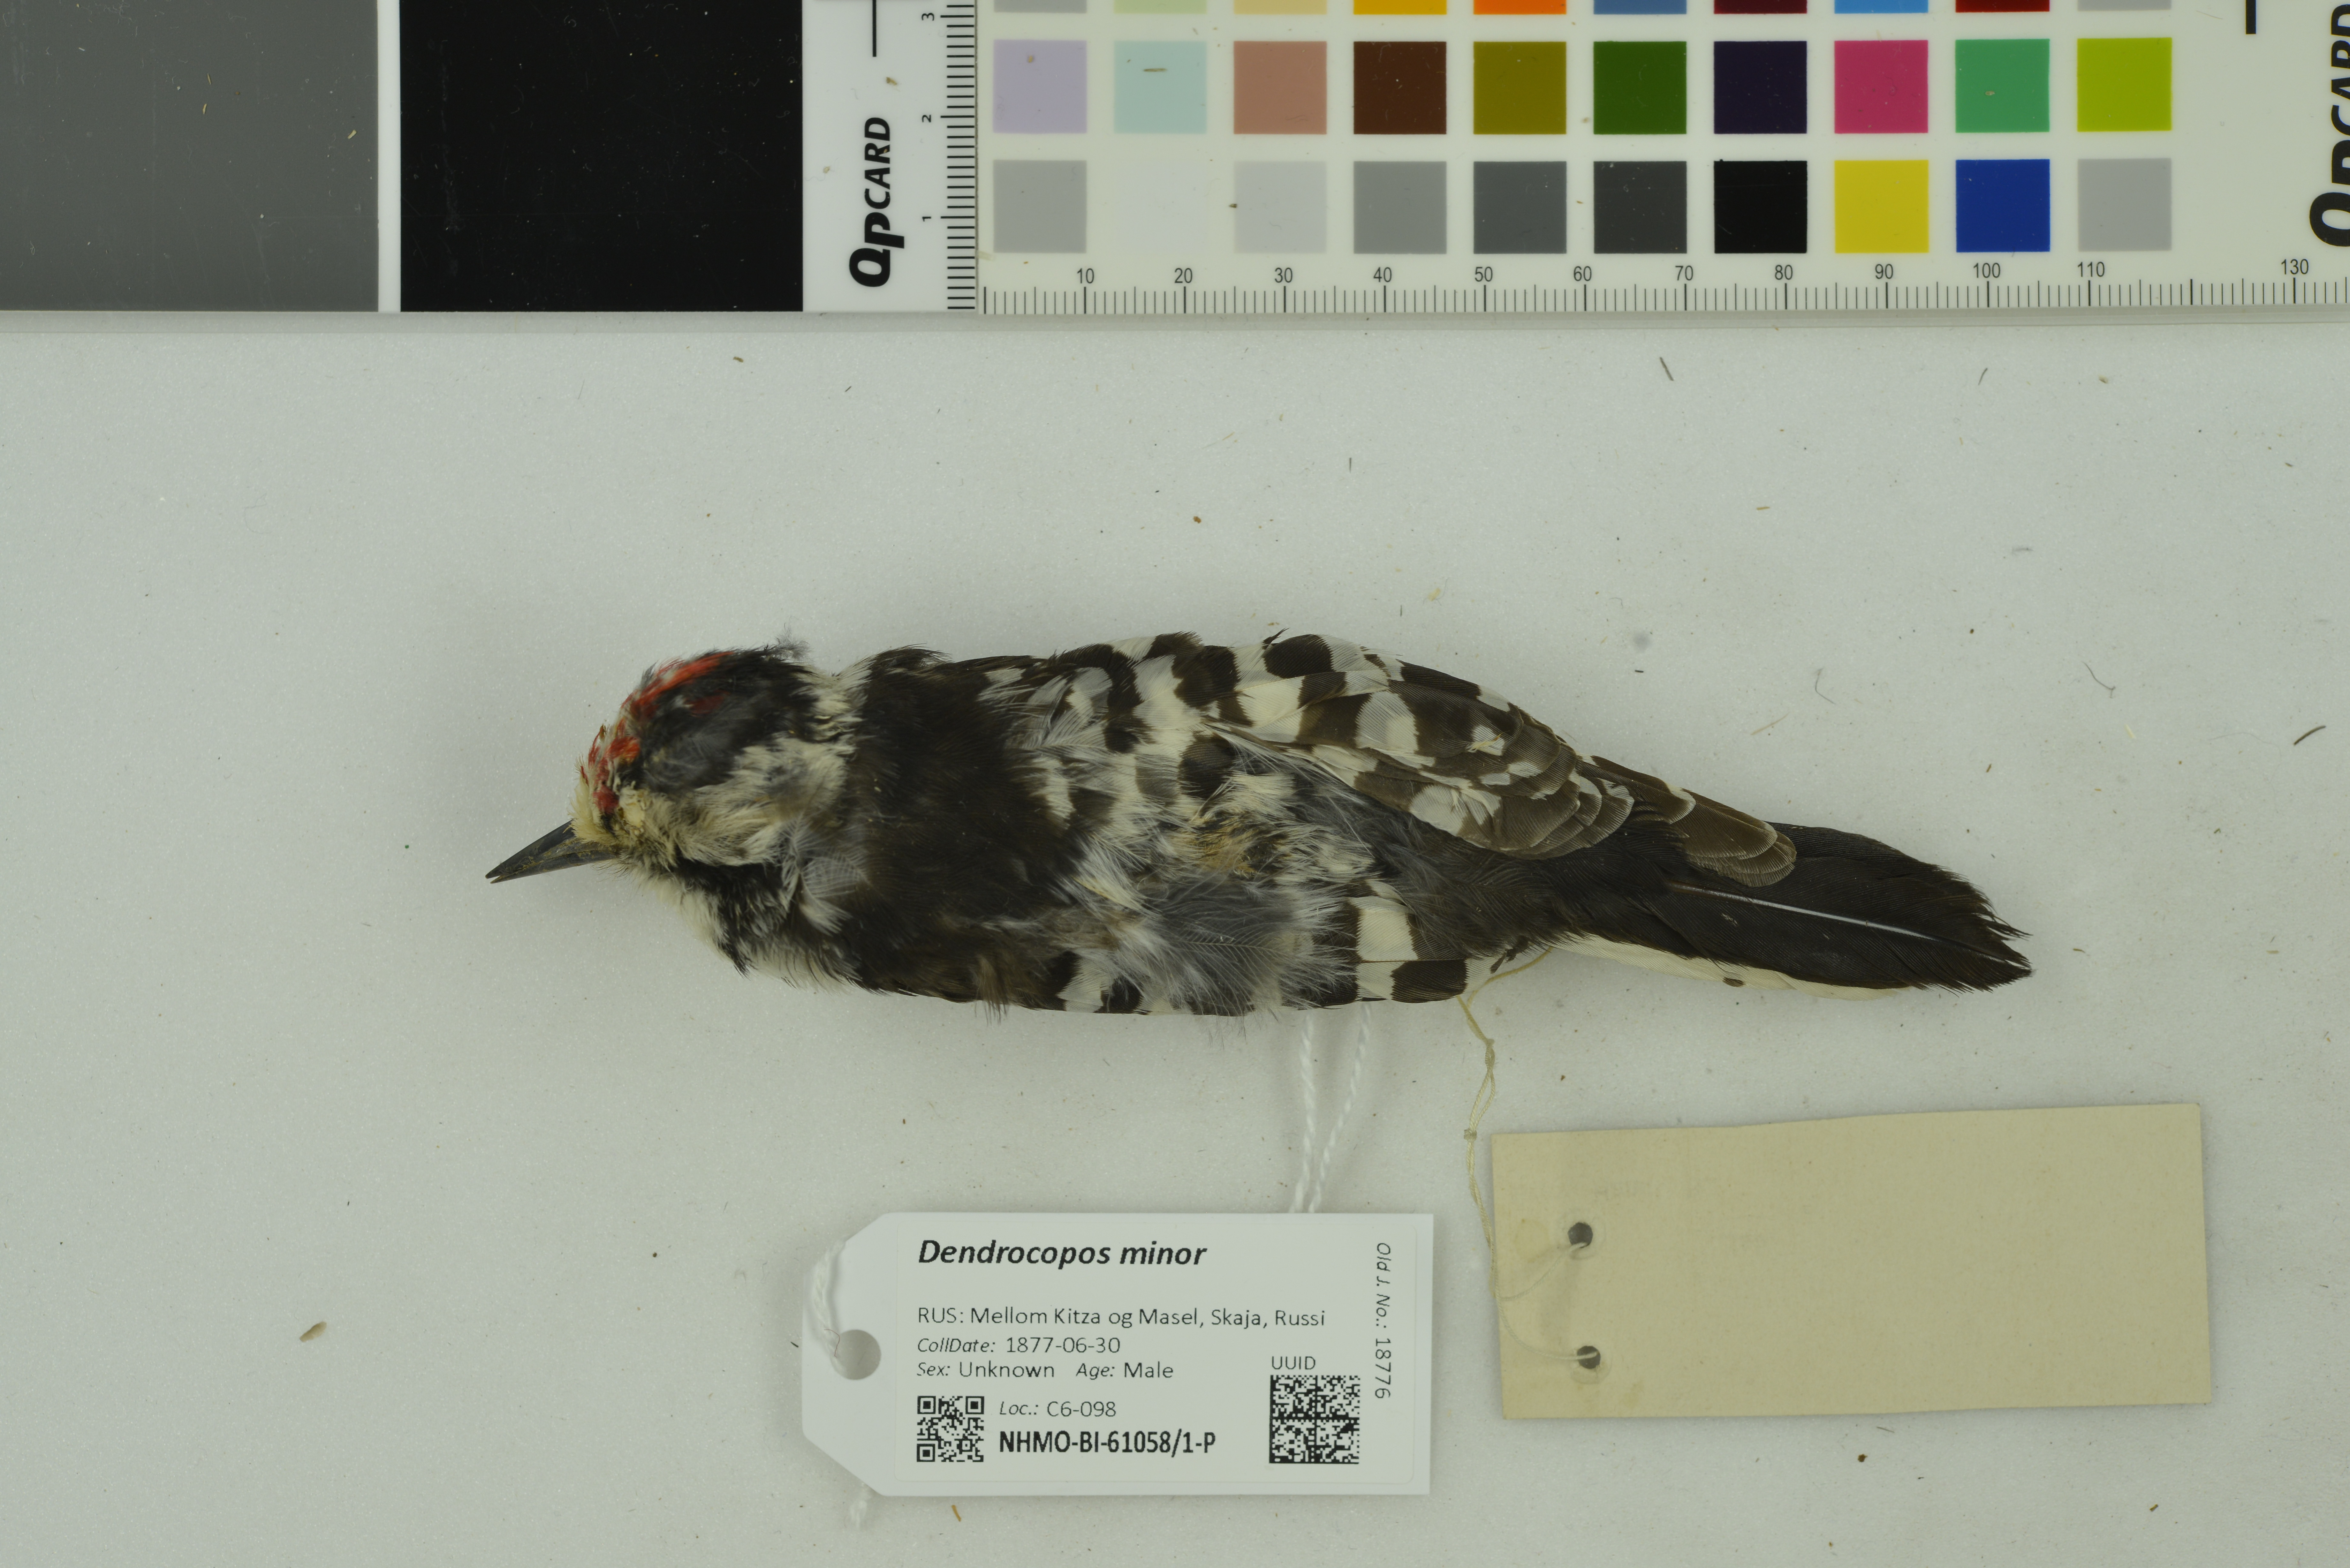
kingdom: Animalia
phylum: Chordata
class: Aves
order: Piciformes
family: Picidae
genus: Dryobates
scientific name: Dryobates minor
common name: Lesser spotted woodpecker
